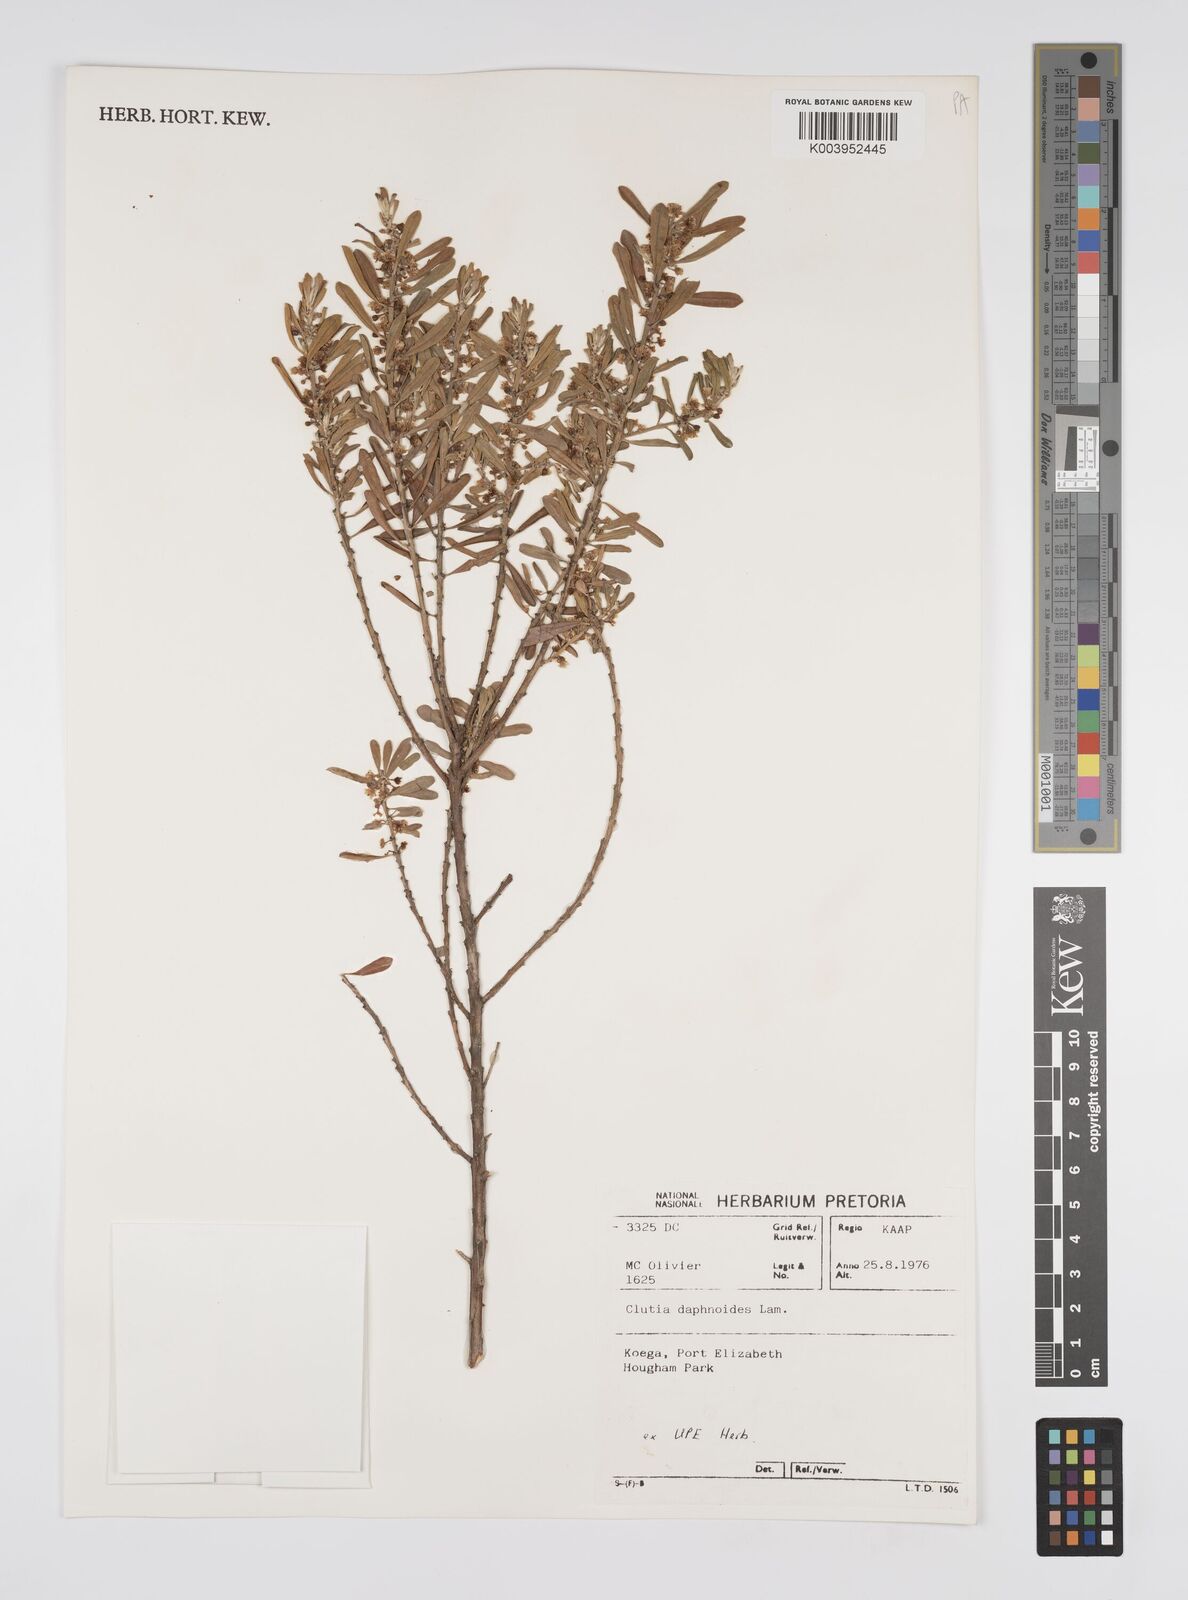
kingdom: Plantae
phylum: Tracheophyta
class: Magnoliopsida
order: Malpighiales
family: Peraceae
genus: Clutia
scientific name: Clutia daphnoides
